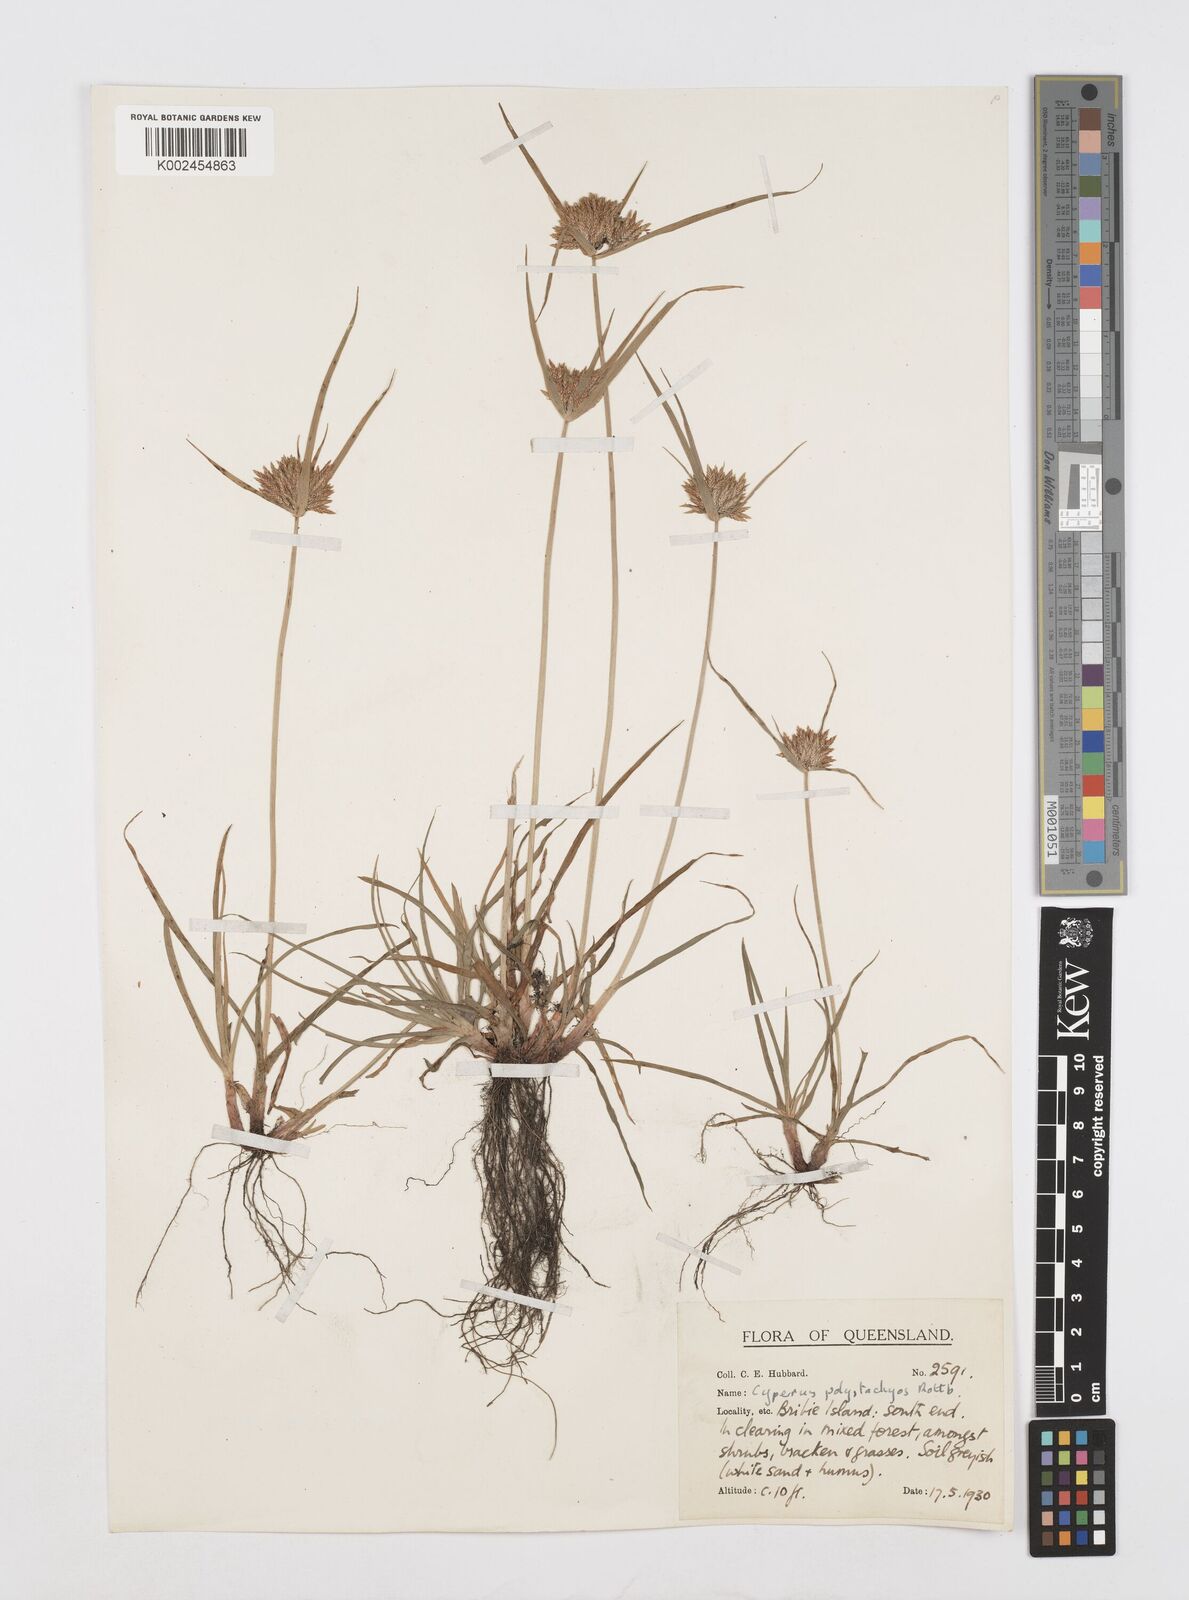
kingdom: Plantae
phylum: Tracheophyta
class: Liliopsida
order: Poales
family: Cyperaceae
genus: Cyperus
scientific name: Cyperus polystachyos
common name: Bunchy flat sedge
